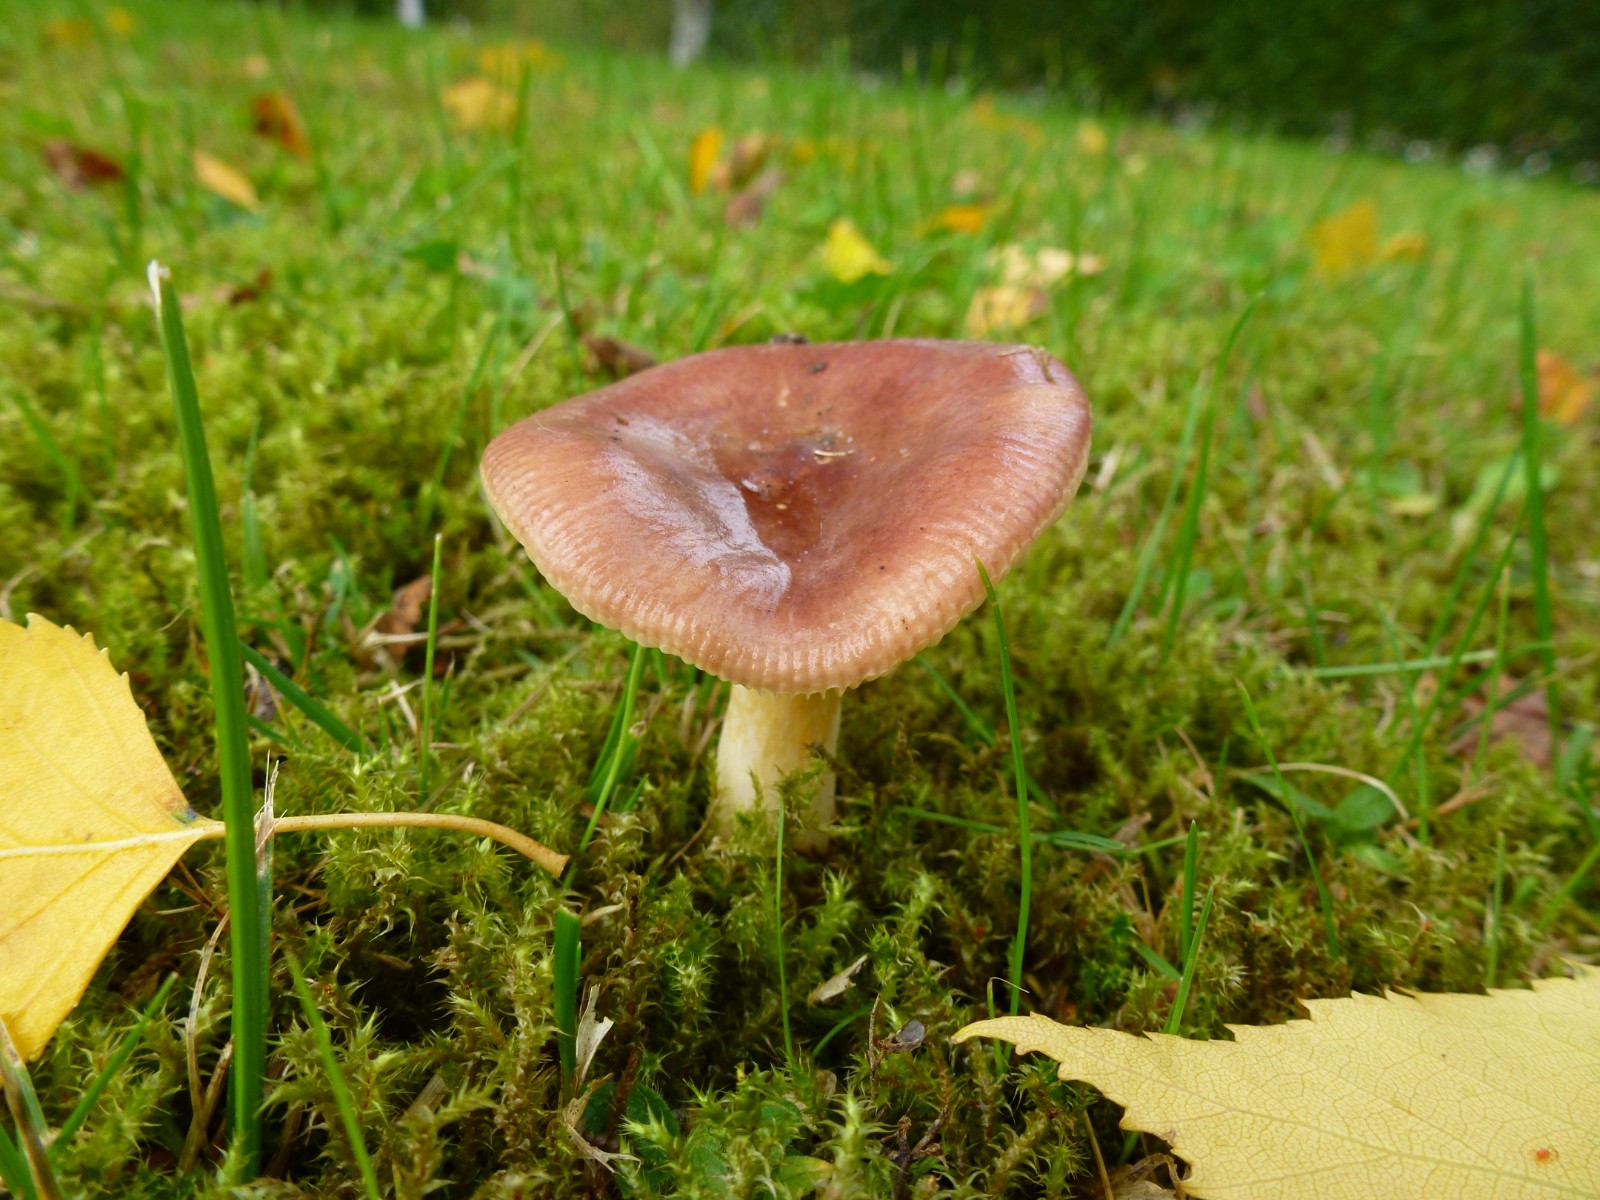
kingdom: Fungi
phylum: Basidiomycota
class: Agaricomycetes
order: Russulales
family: Russulaceae
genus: Russula
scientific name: Russula
